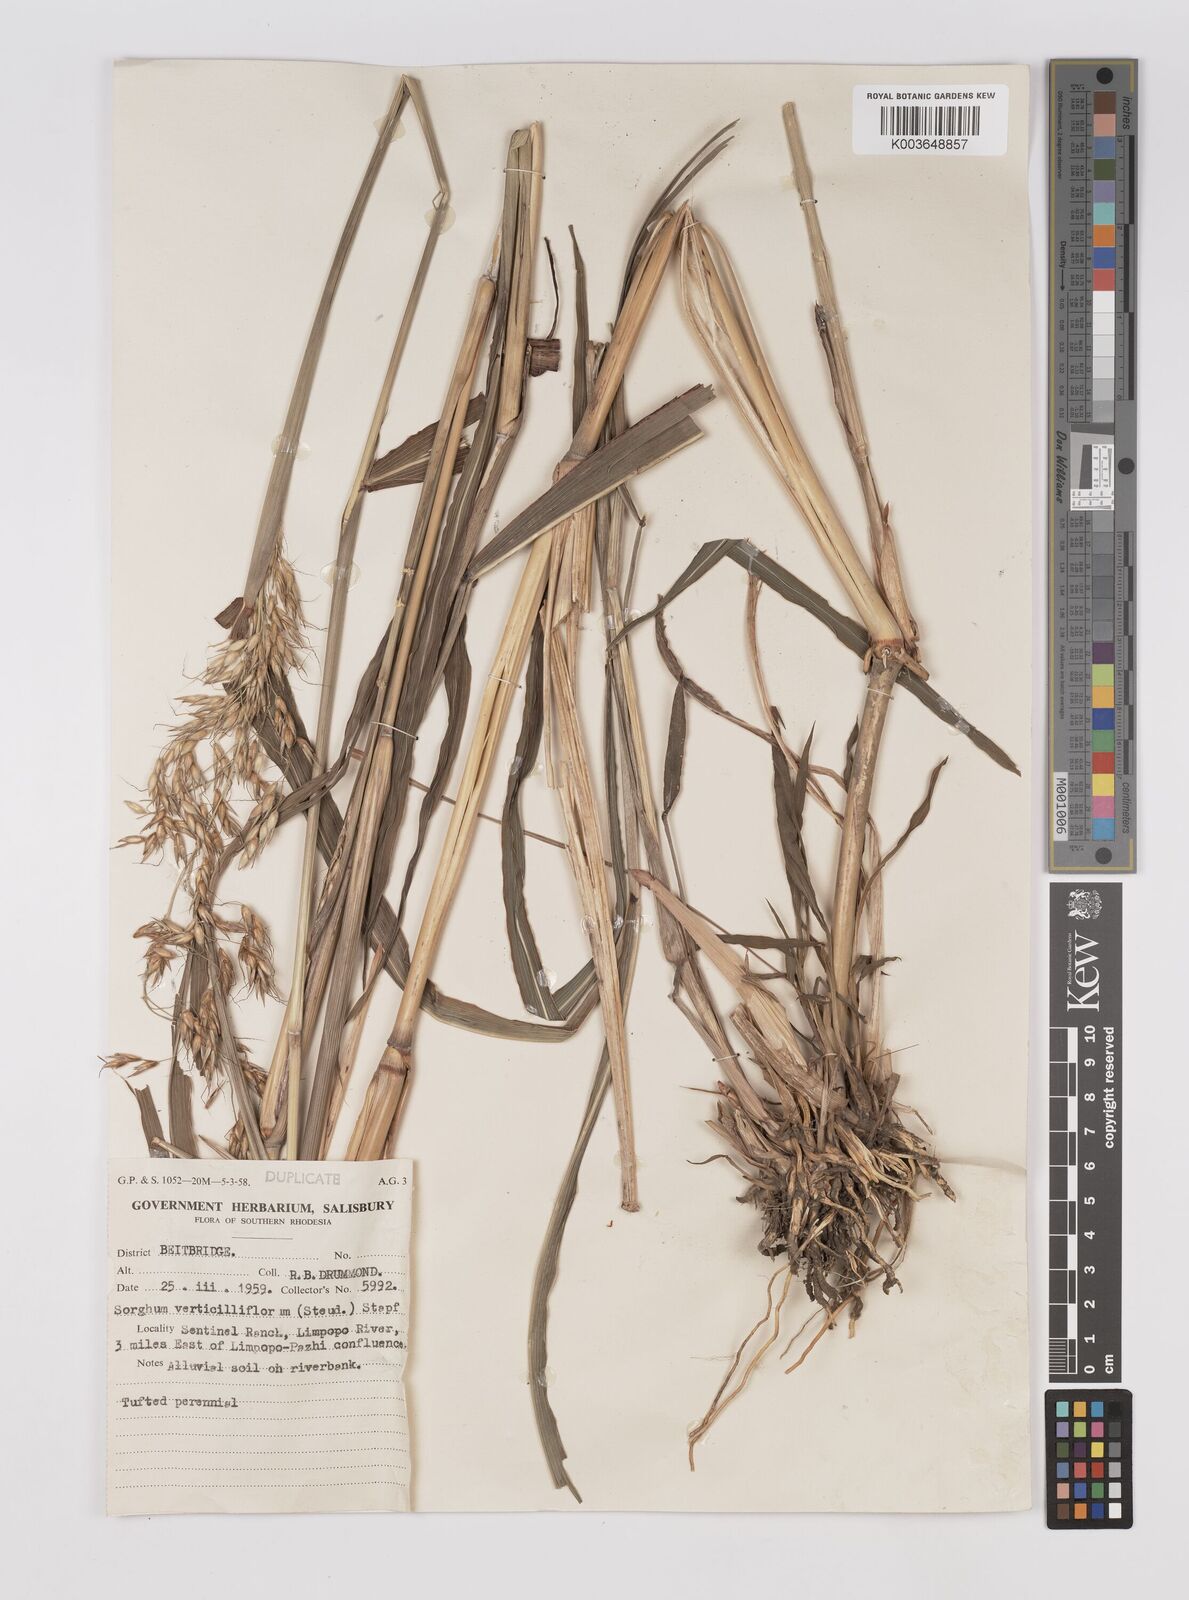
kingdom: Plantae
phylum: Tracheophyta
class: Liliopsida
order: Poales
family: Poaceae
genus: Sorghum
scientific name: Sorghum arundinaceum
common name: Sorghum
